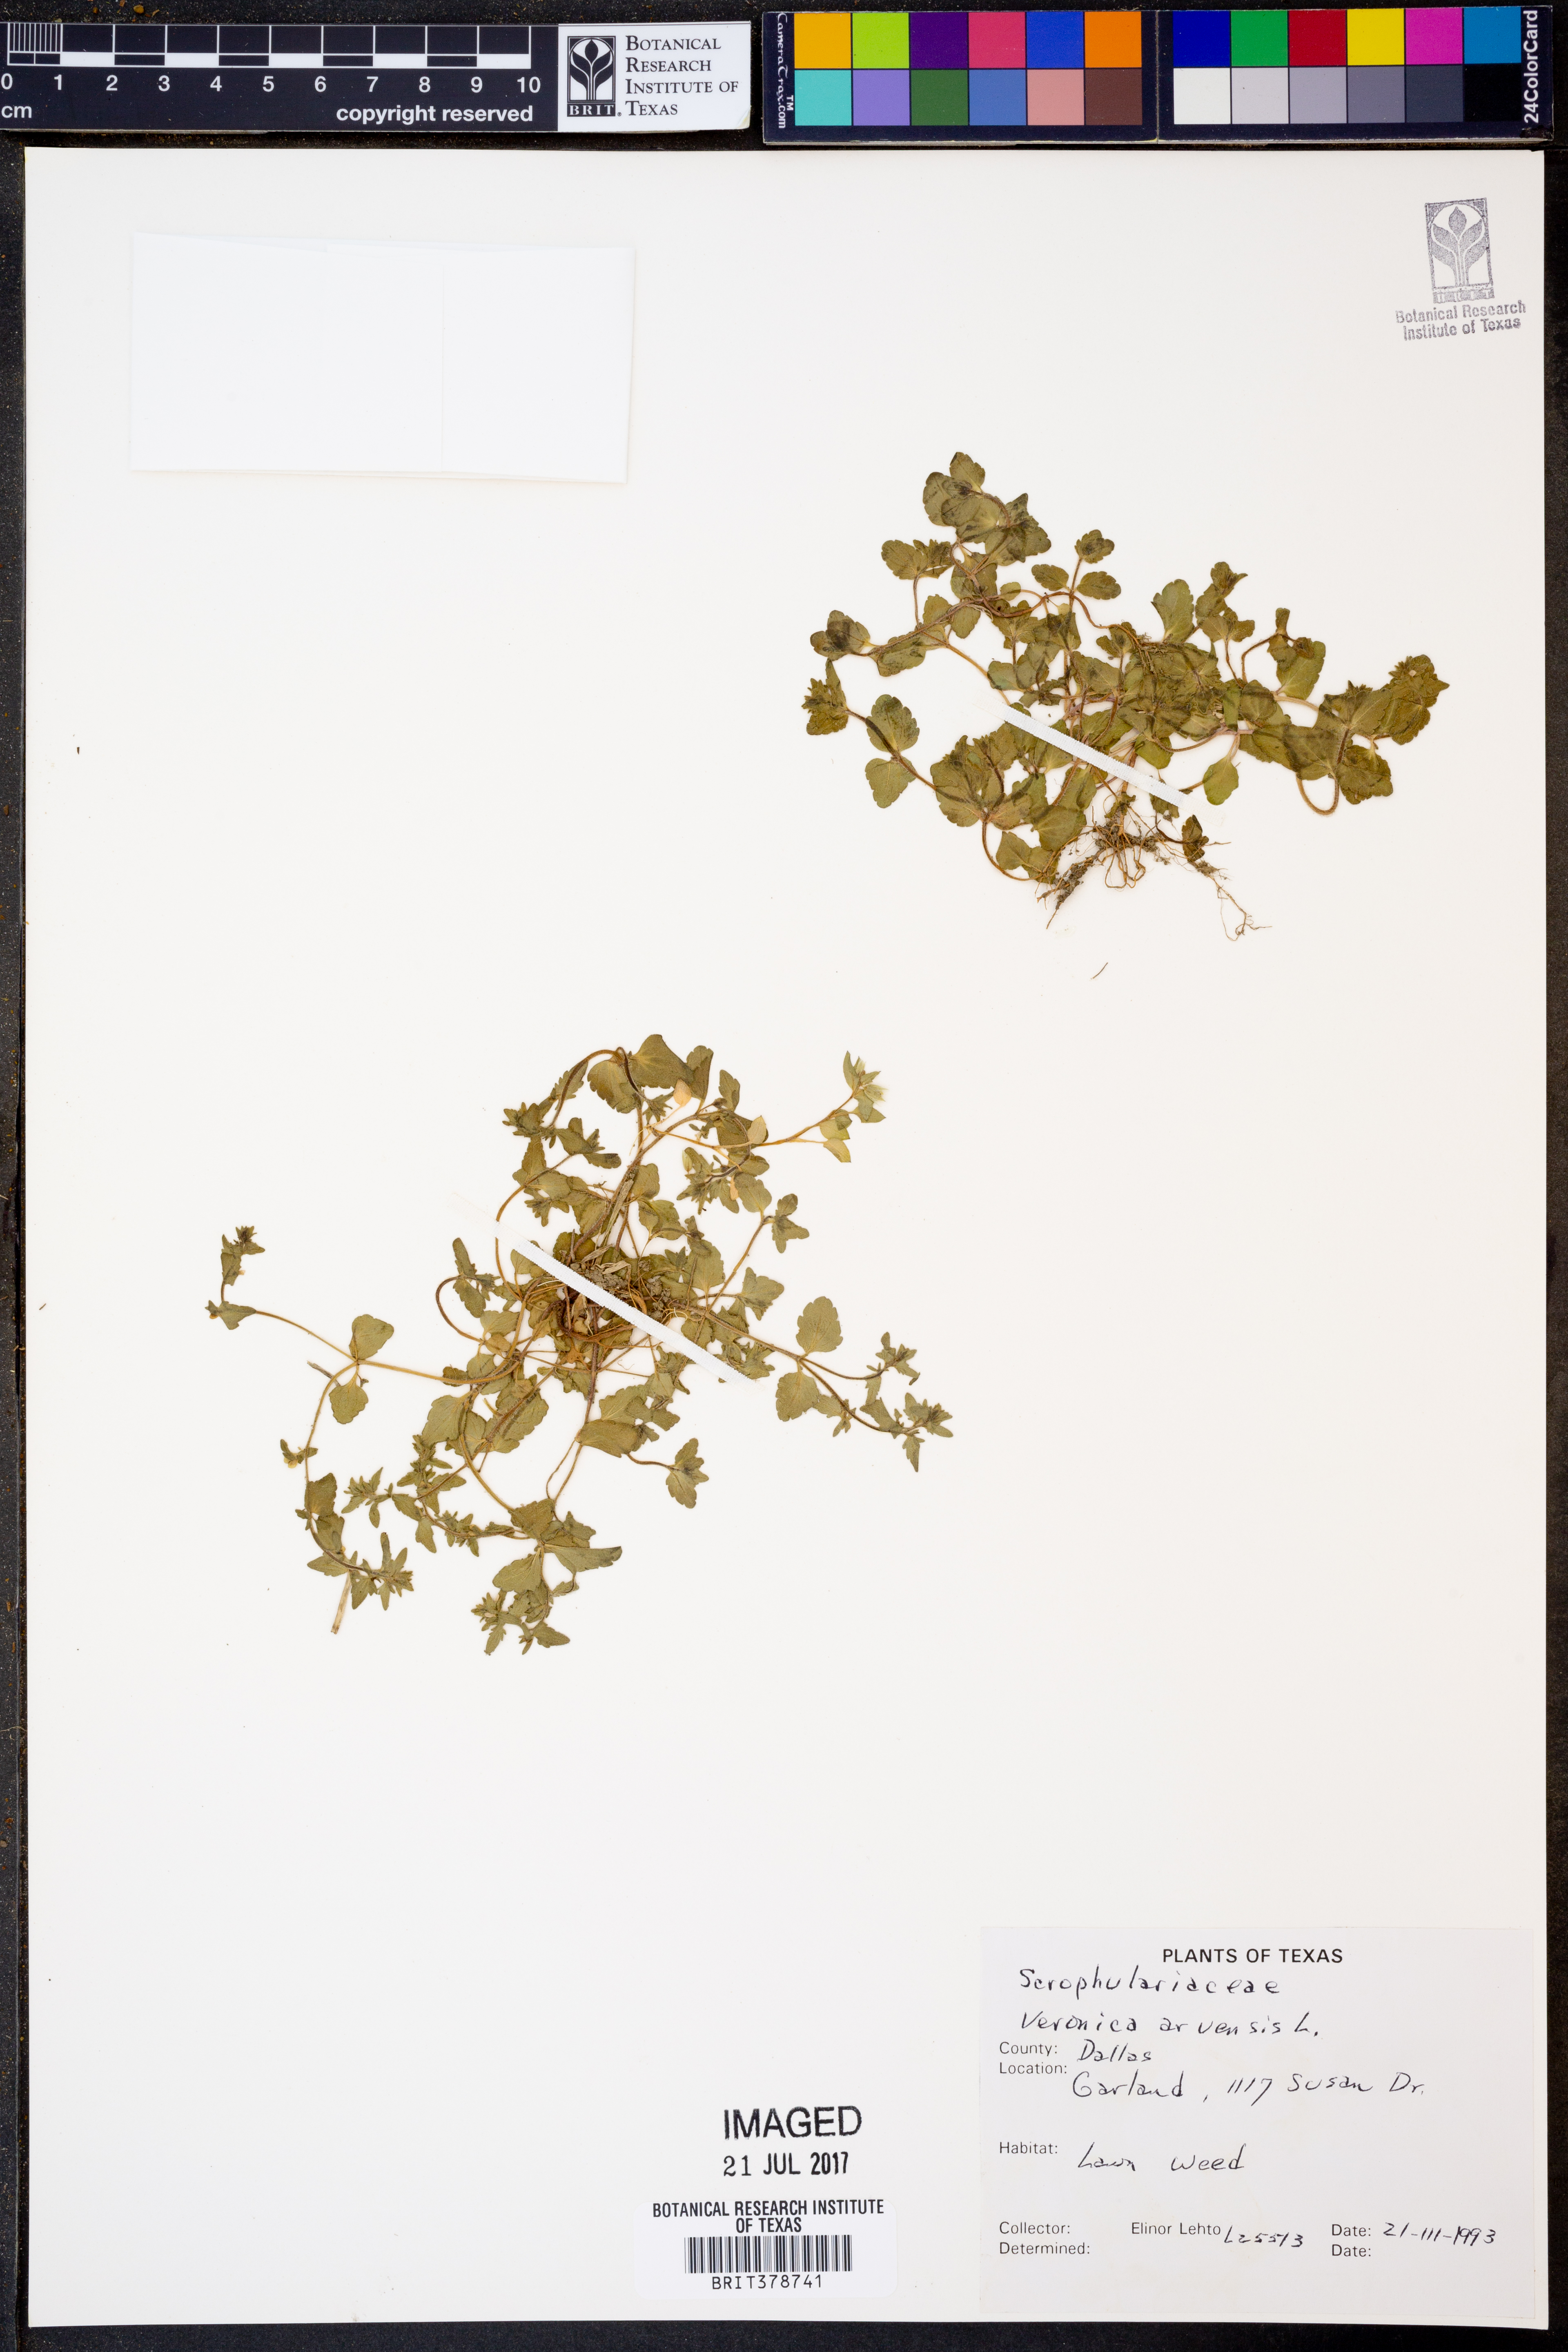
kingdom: Plantae
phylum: Tracheophyta
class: Magnoliopsida
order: Lamiales
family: Plantaginaceae
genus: Veronica
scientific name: Veronica arvensis
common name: Corn speedwell
